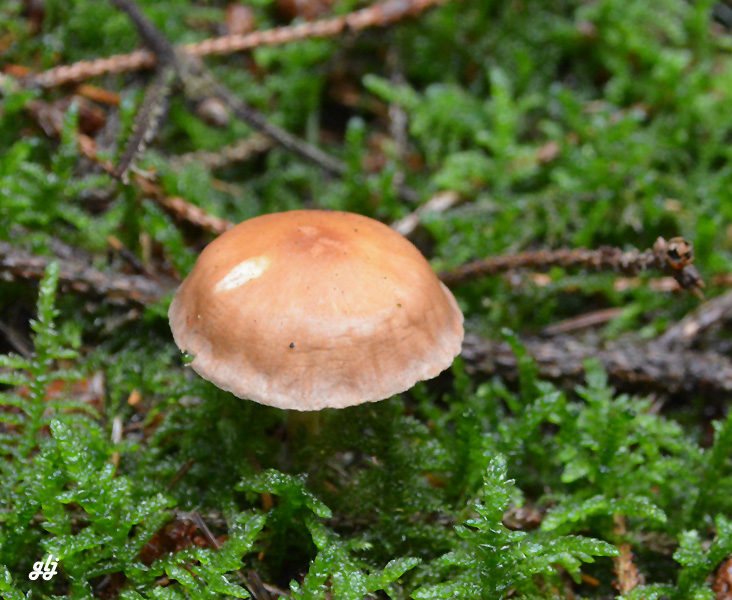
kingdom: Fungi
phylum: Basidiomycota
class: Agaricomycetes
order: Agaricales
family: Omphalotaceae
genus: Collybiopsis
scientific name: Collybiopsis peronata
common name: bestøvlet fladhat
